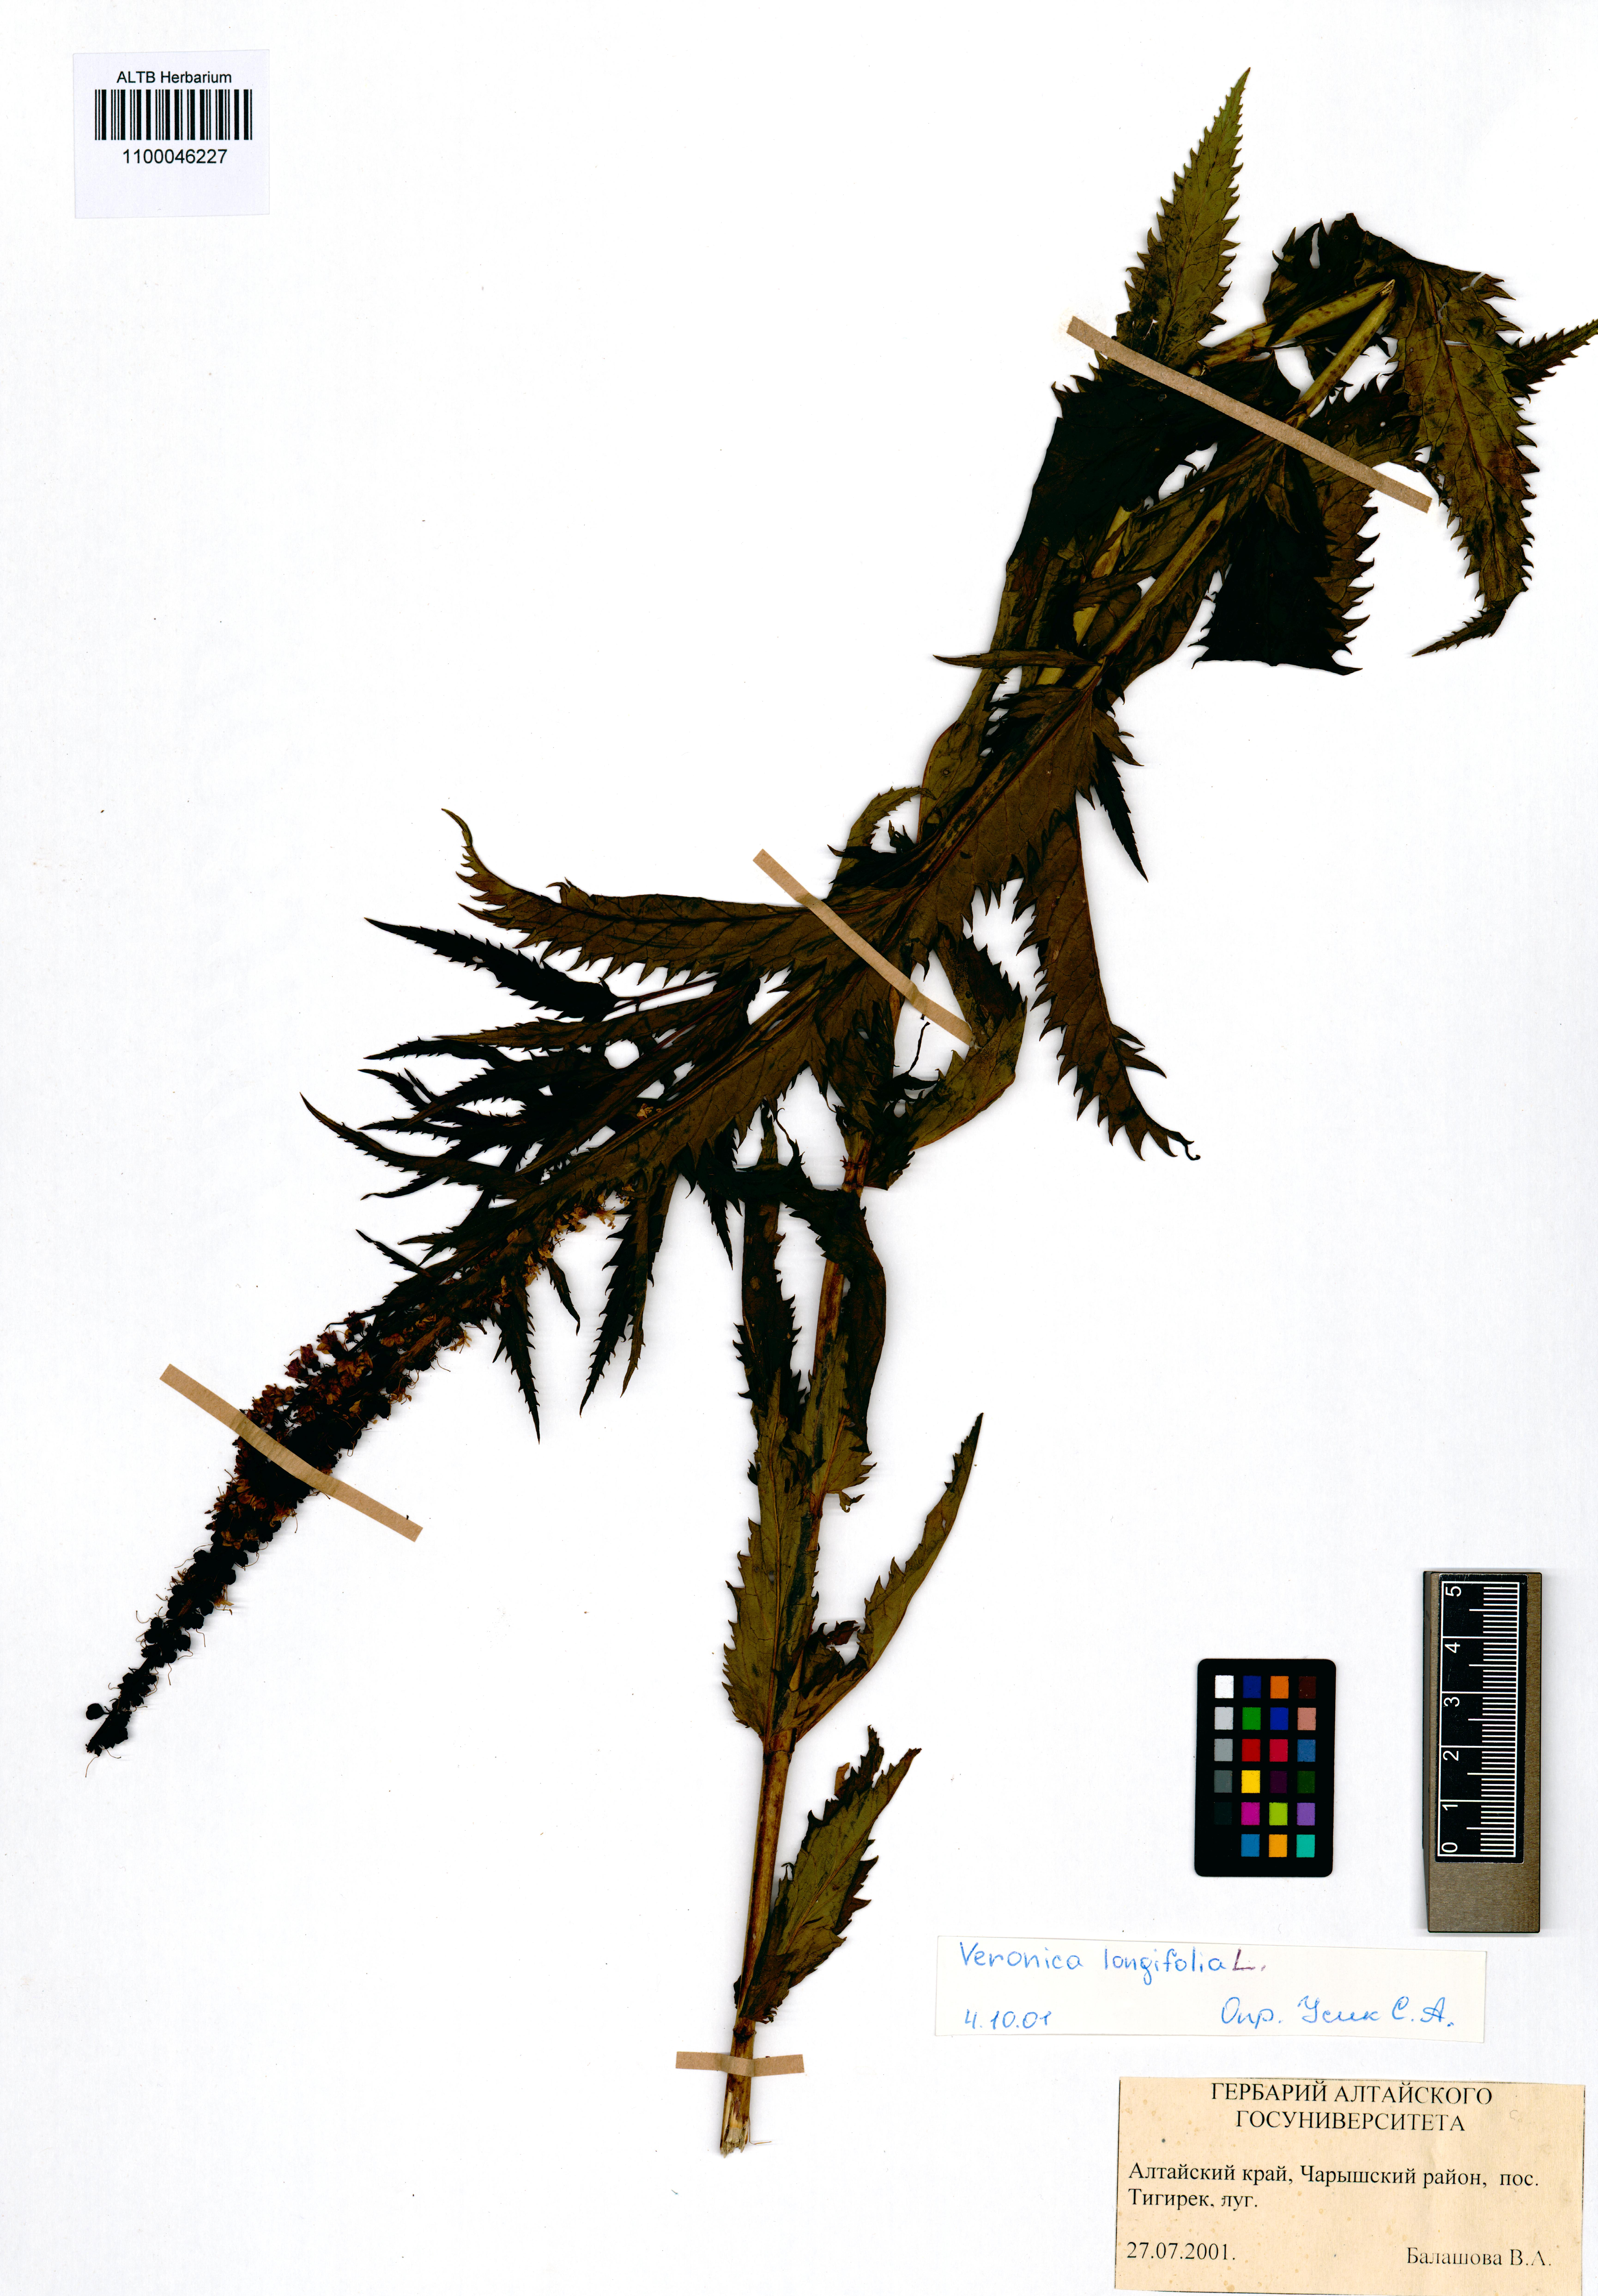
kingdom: Plantae
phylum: Tracheophyta
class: Magnoliopsida
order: Lamiales
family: Plantaginaceae
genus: Veronica
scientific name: Veronica longifolia
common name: Garden speedwell
